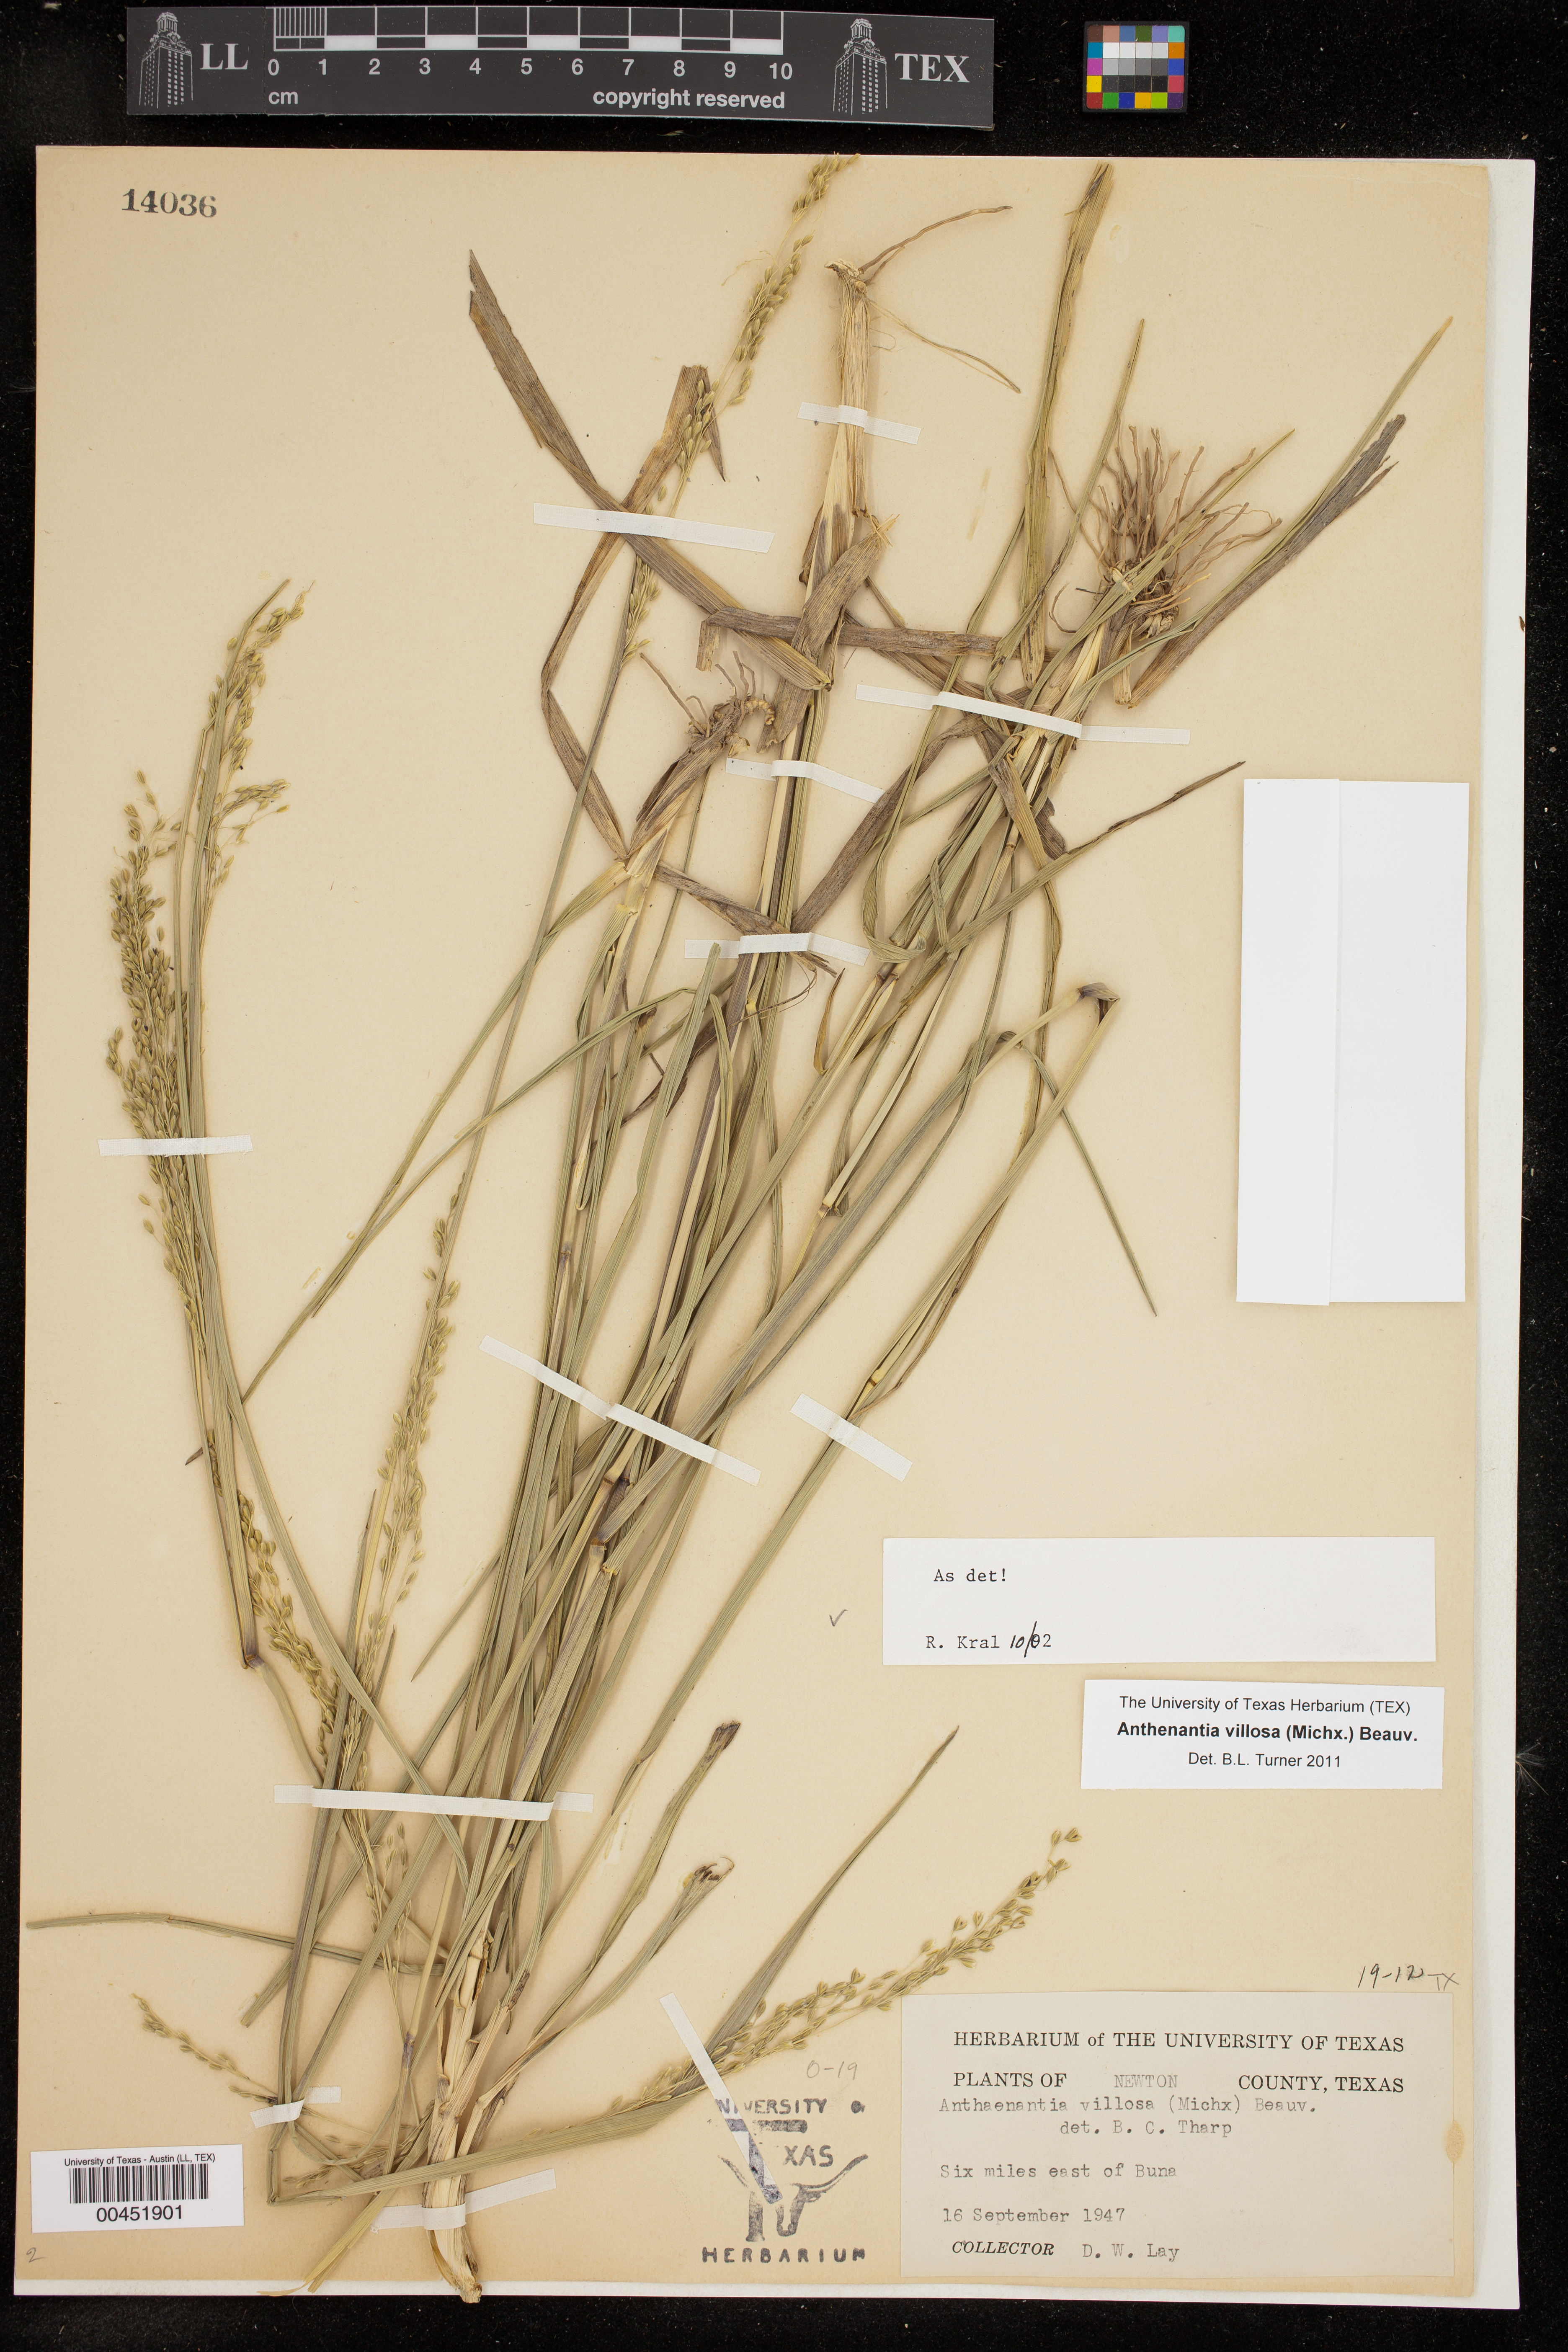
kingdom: Plantae
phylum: Tracheophyta
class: Liliopsida
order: Poales
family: Poaceae
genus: Anthenantia
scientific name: Anthenantia villosa
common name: Green silkyscale
